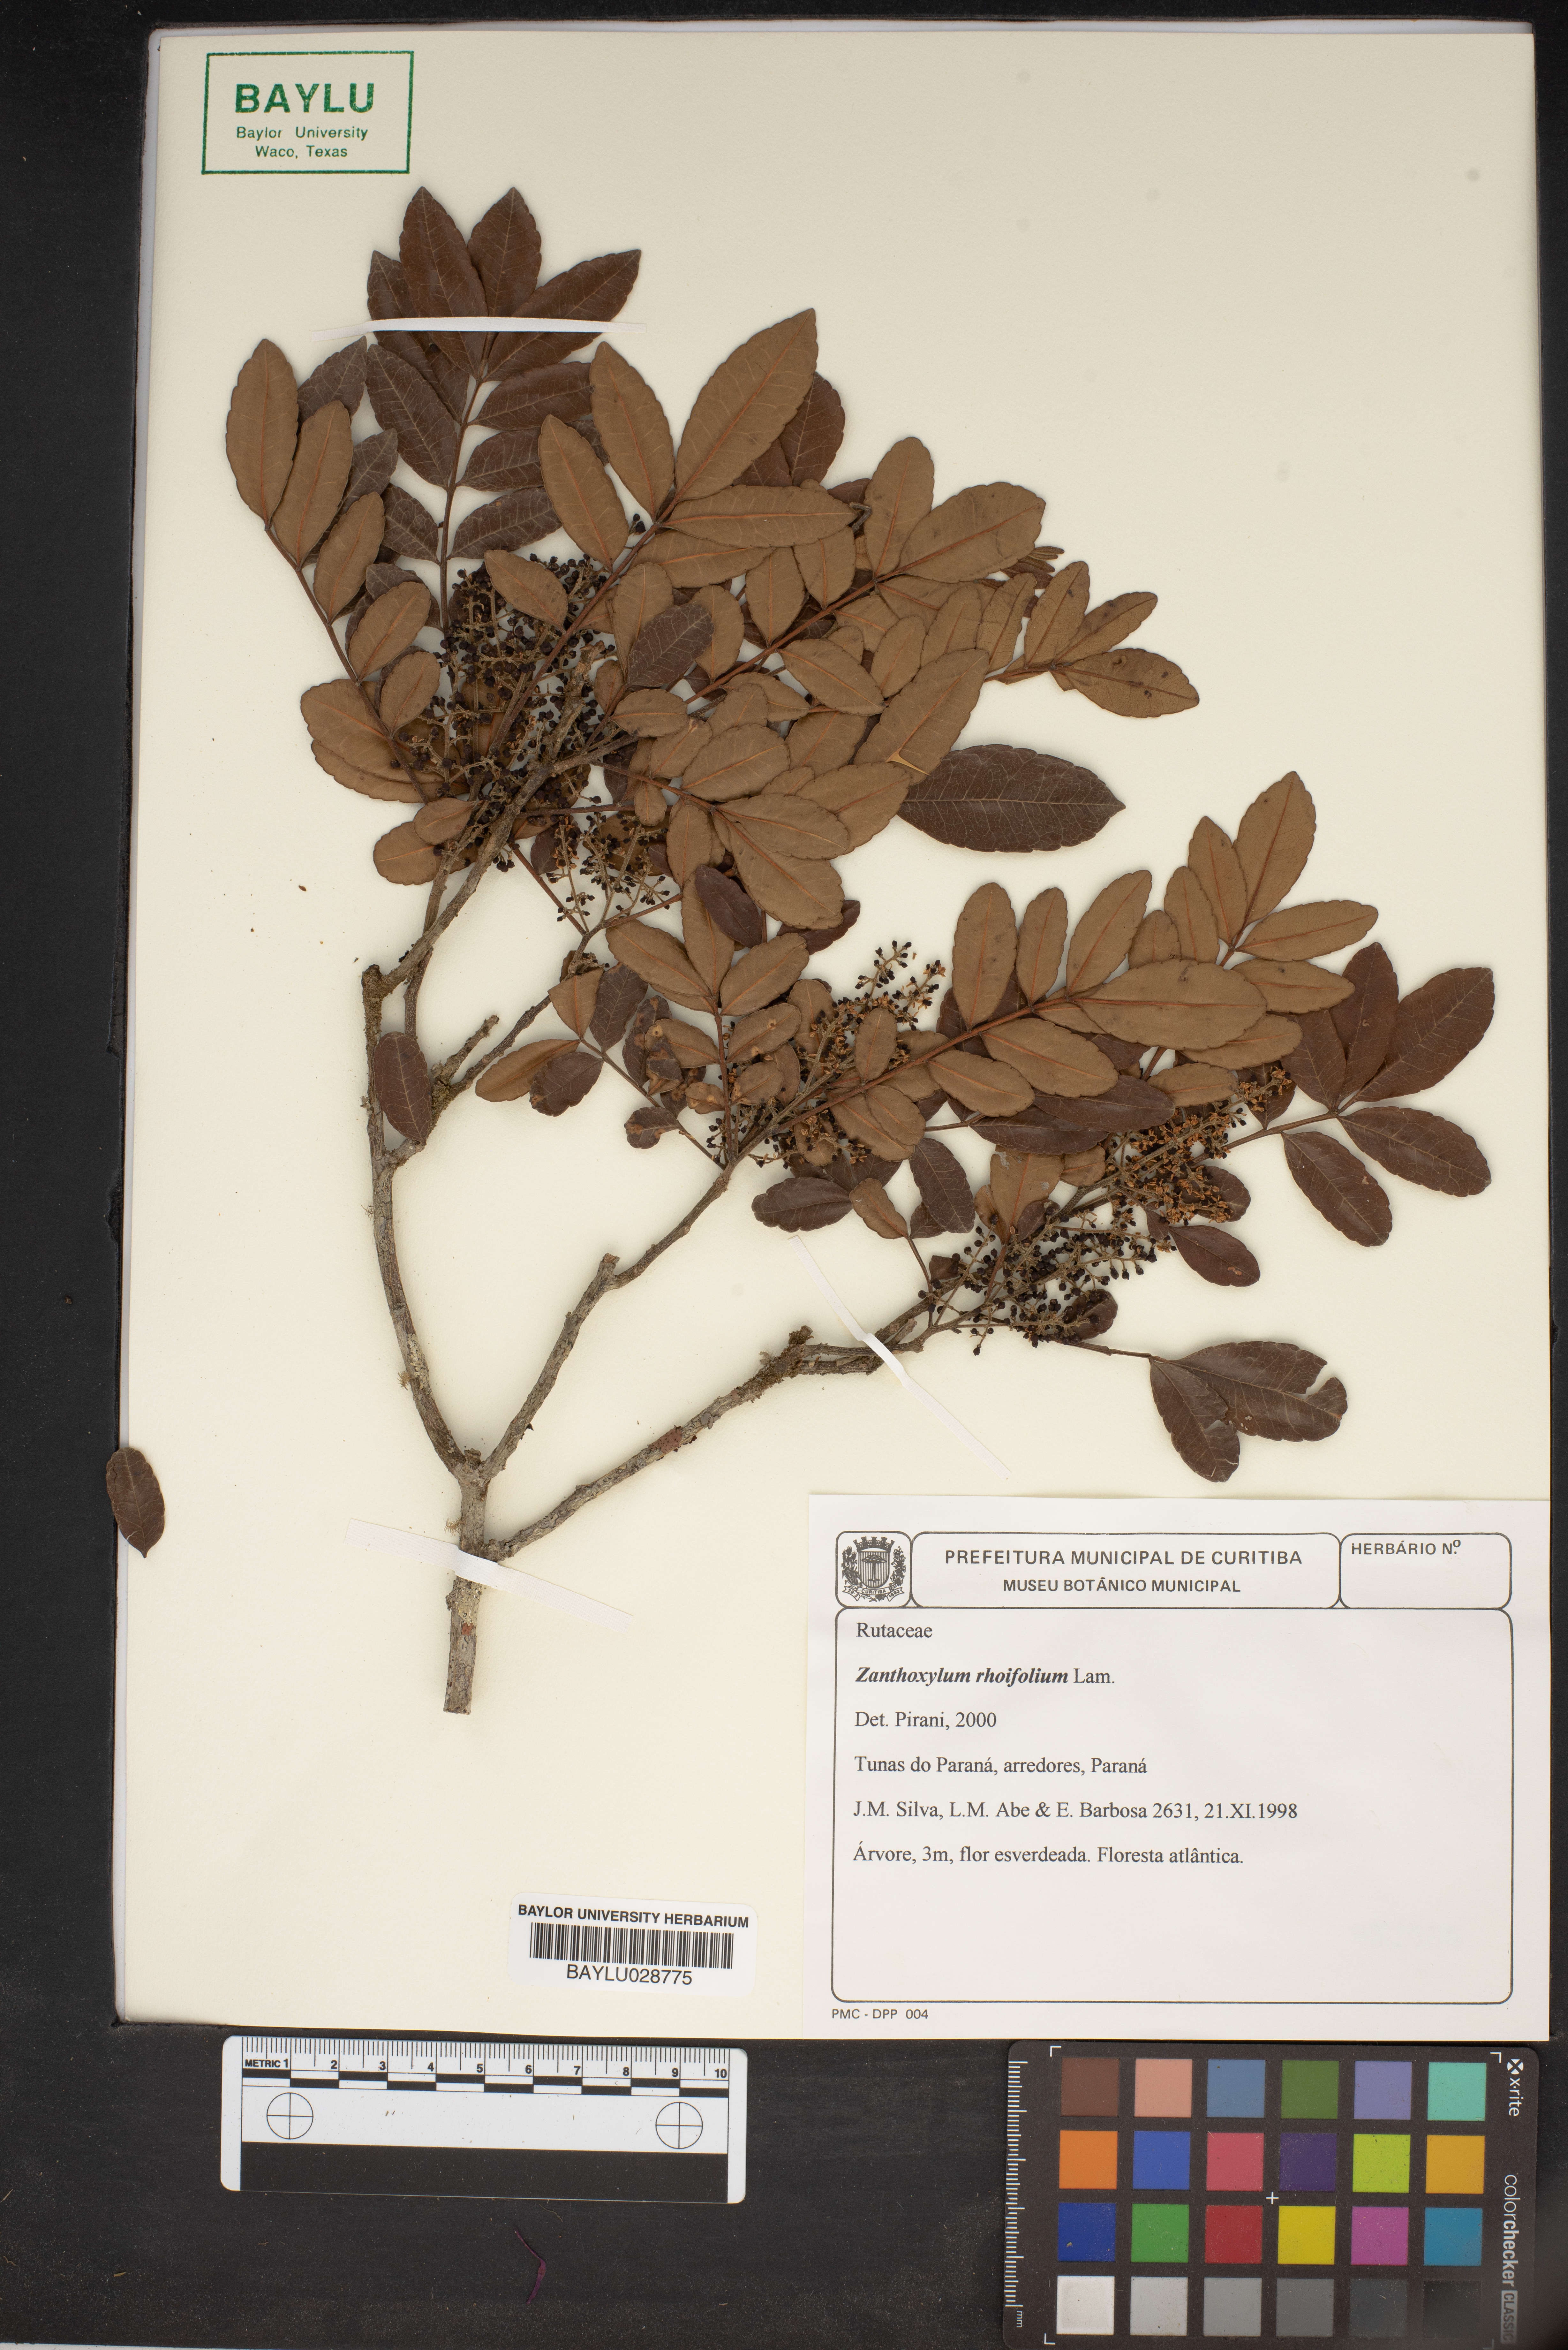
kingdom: Plantae
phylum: Tracheophyta
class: Magnoliopsida
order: Sapindales
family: Rutaceae
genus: Zanthoxylum
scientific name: Zanthoxylum rhoifolium
